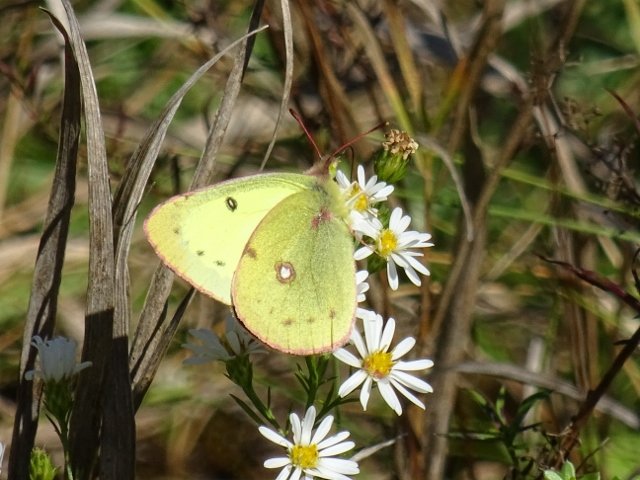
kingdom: Animalia
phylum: Arthropoda
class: Insecta
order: Lepidoptera
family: Pieridae
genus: Colias
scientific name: Colias philodice
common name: Clouded Sulphur
